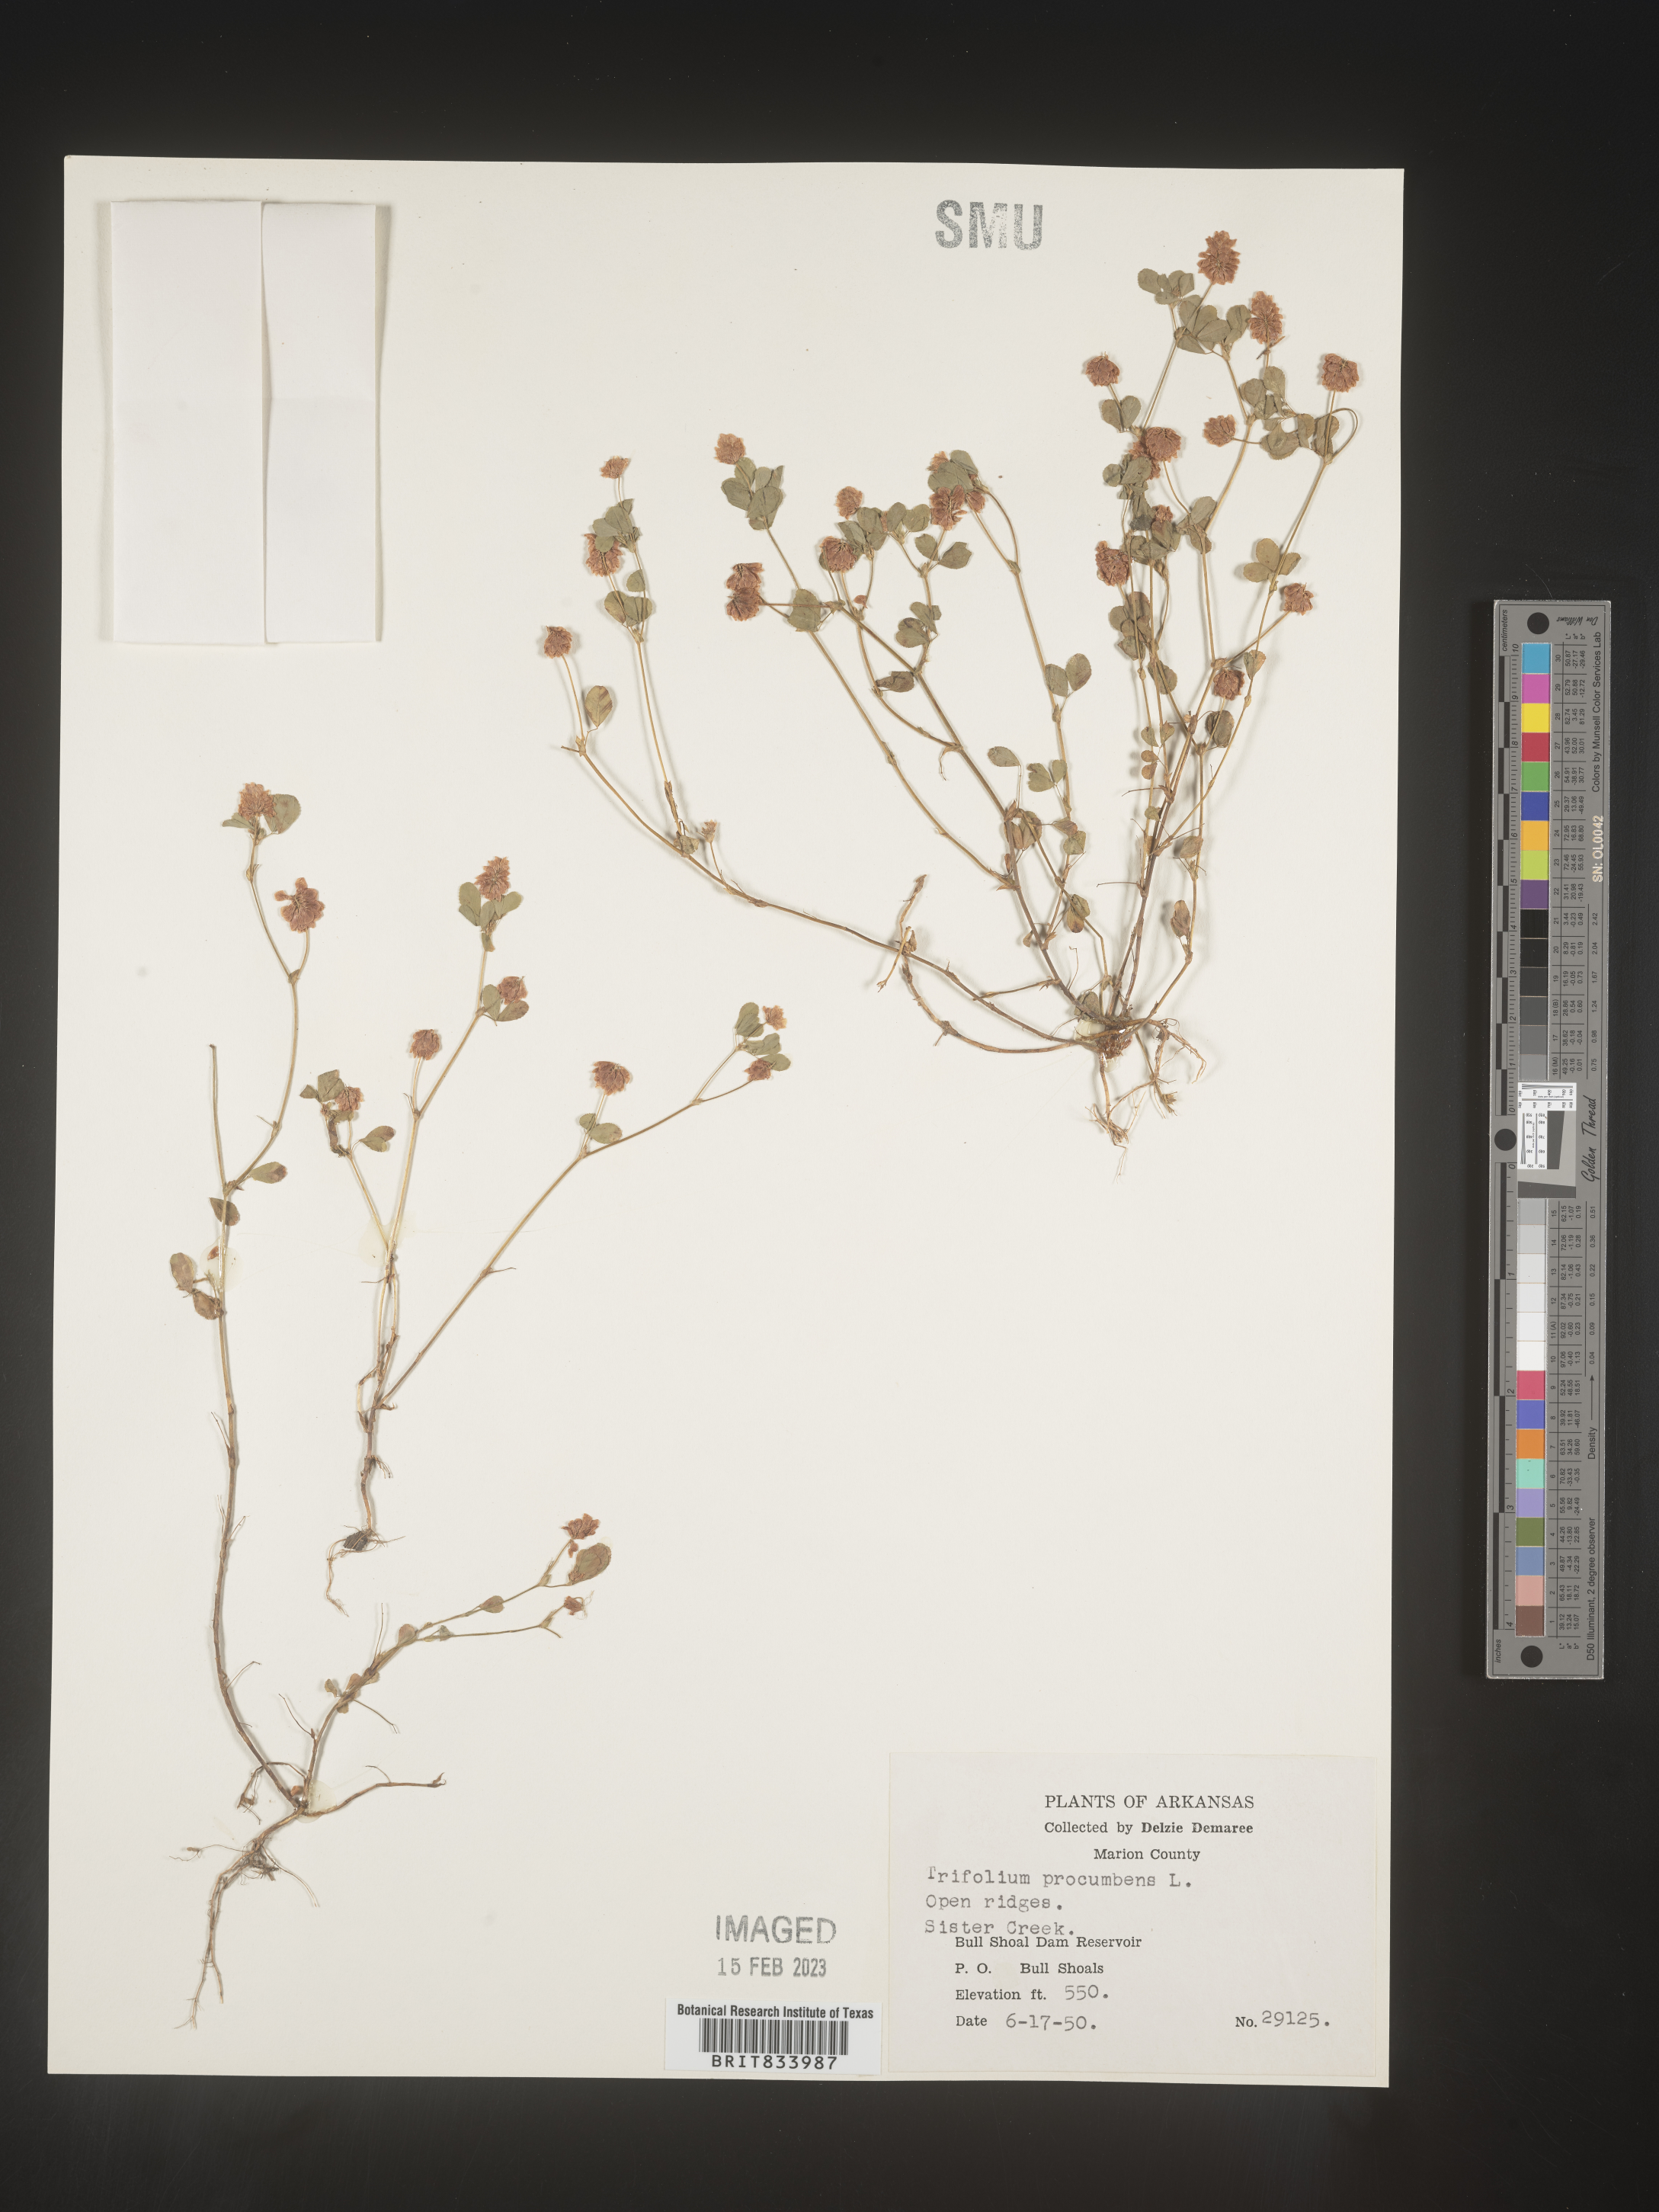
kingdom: Plantae
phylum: Tracheophyta
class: Magnoliopsida
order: Fabales
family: Fabaceae
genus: Trifolium
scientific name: Trifolium campestre
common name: Field clover
